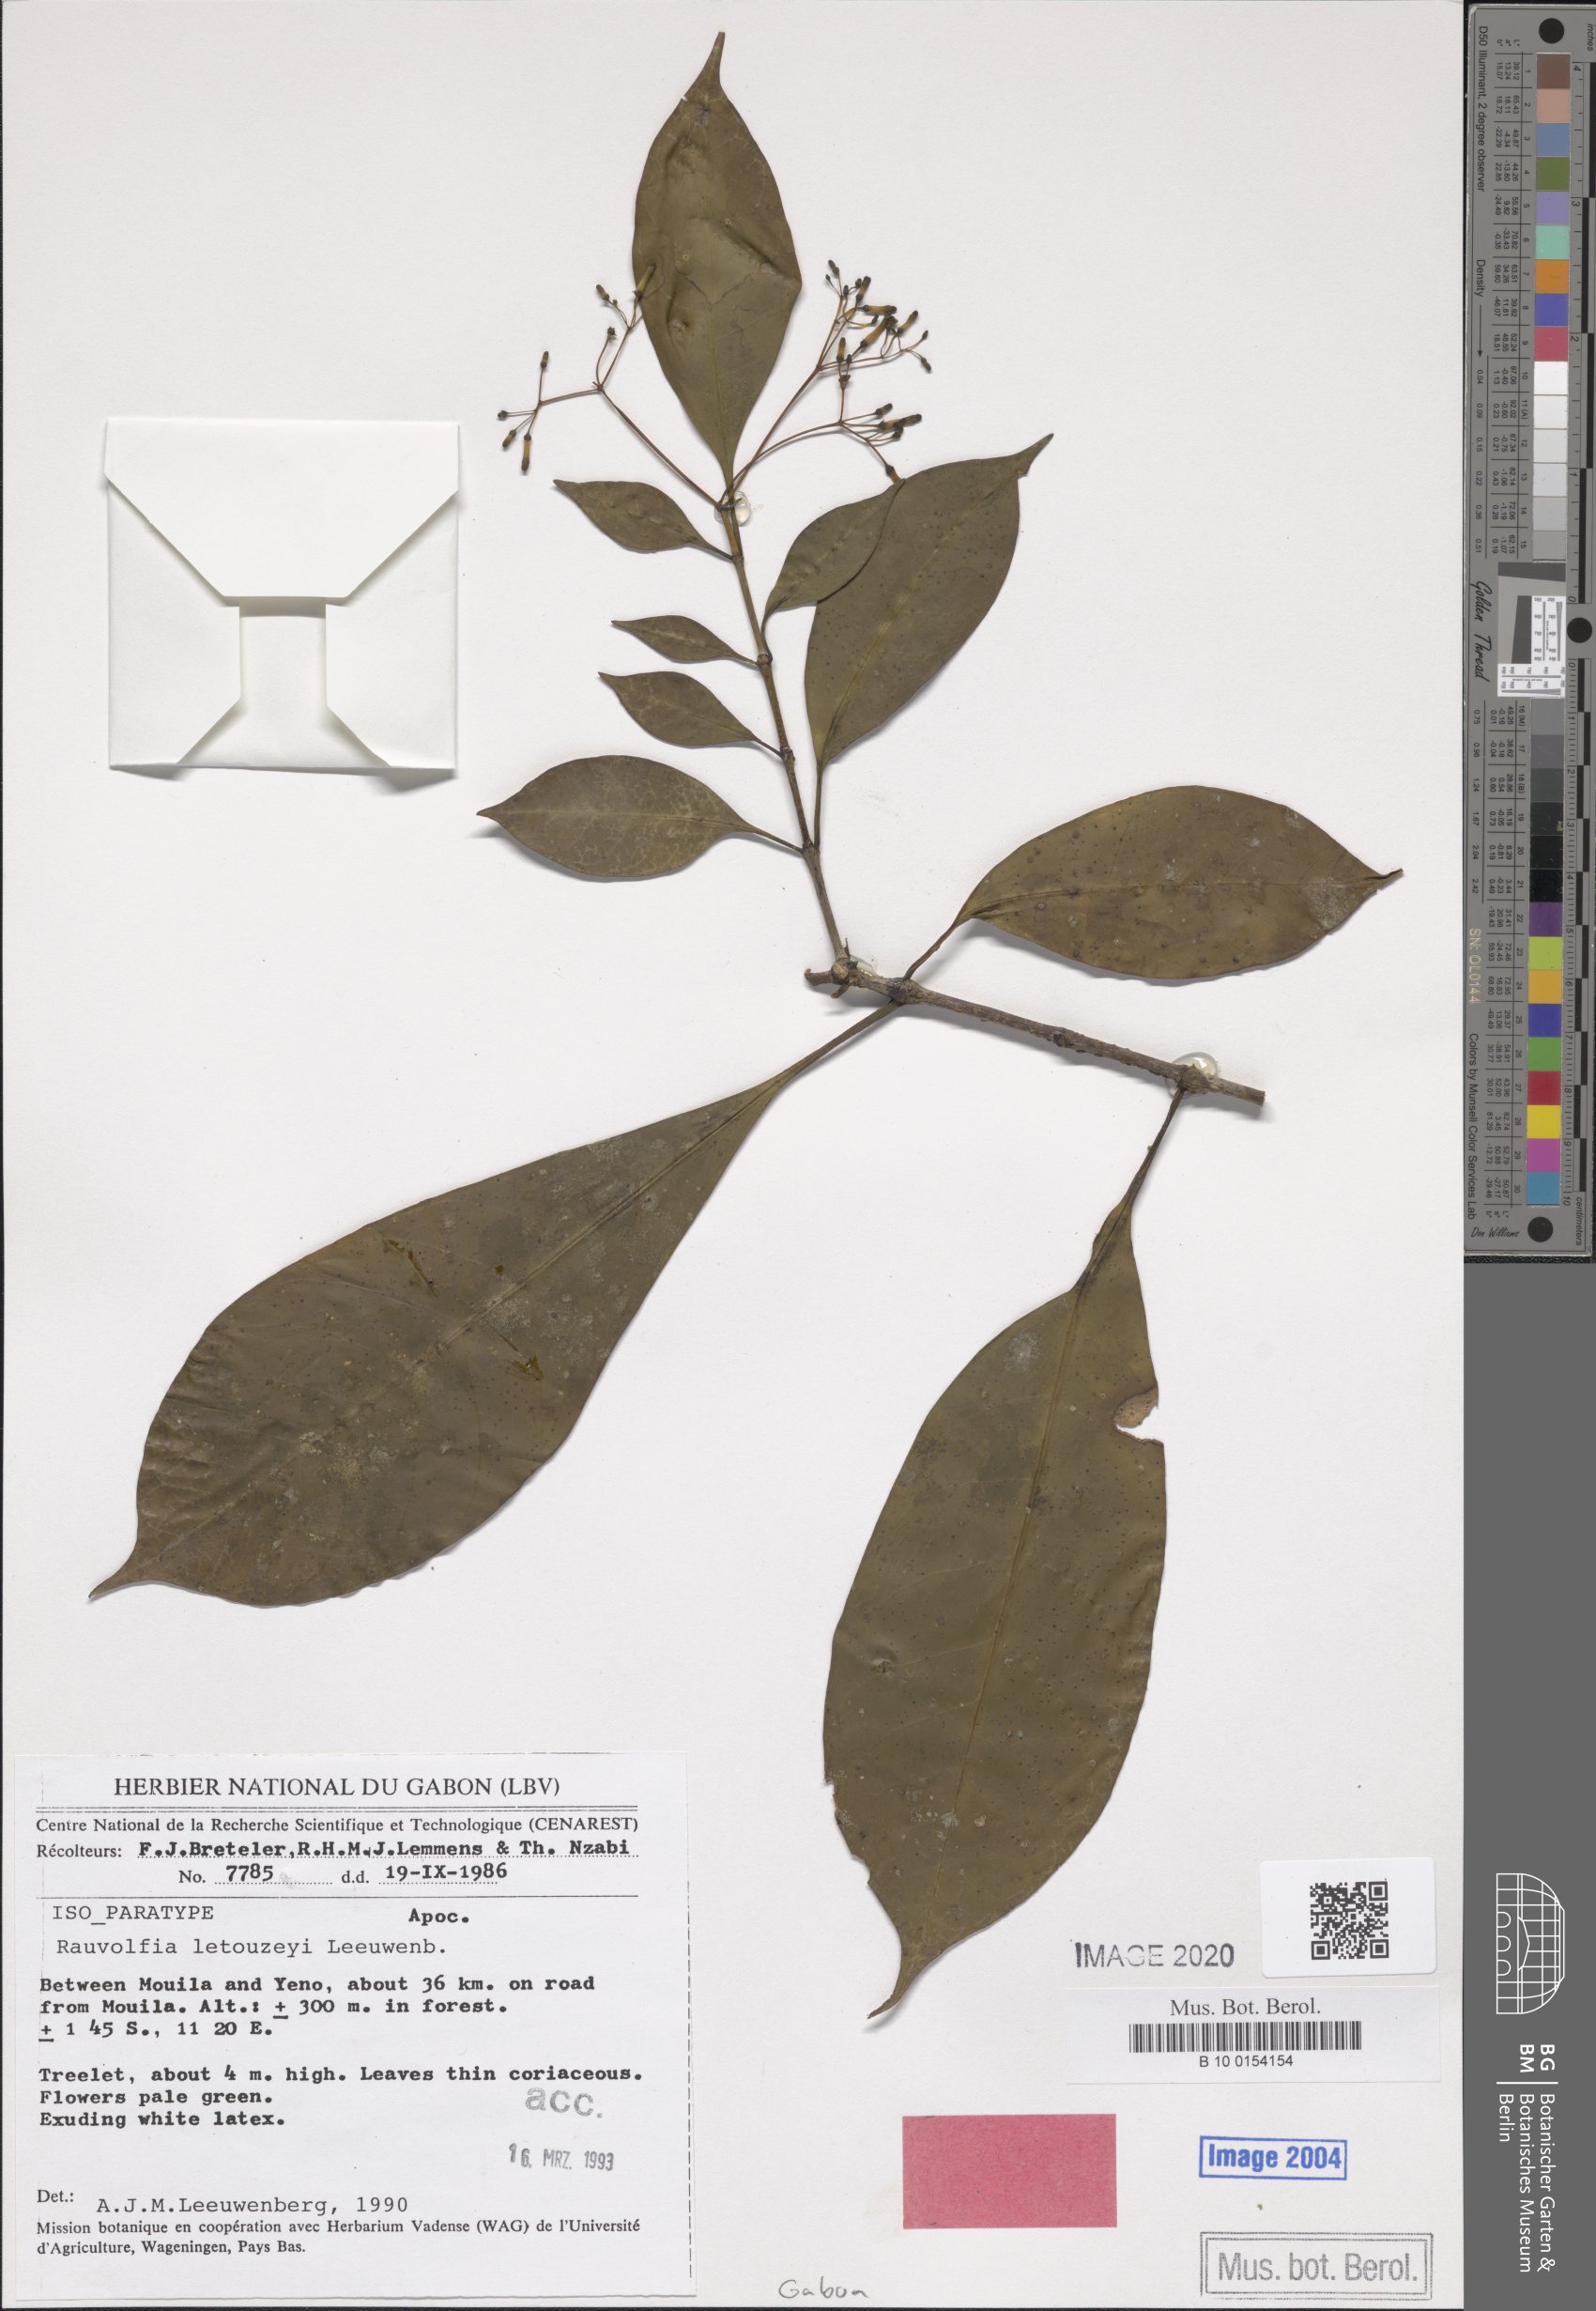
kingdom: Plantae
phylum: Tracheophyta
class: Magnoliopsida
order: Gentianales
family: Apocynaceae
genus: Rauvolfia
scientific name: Rauvolfia letouzeyi
